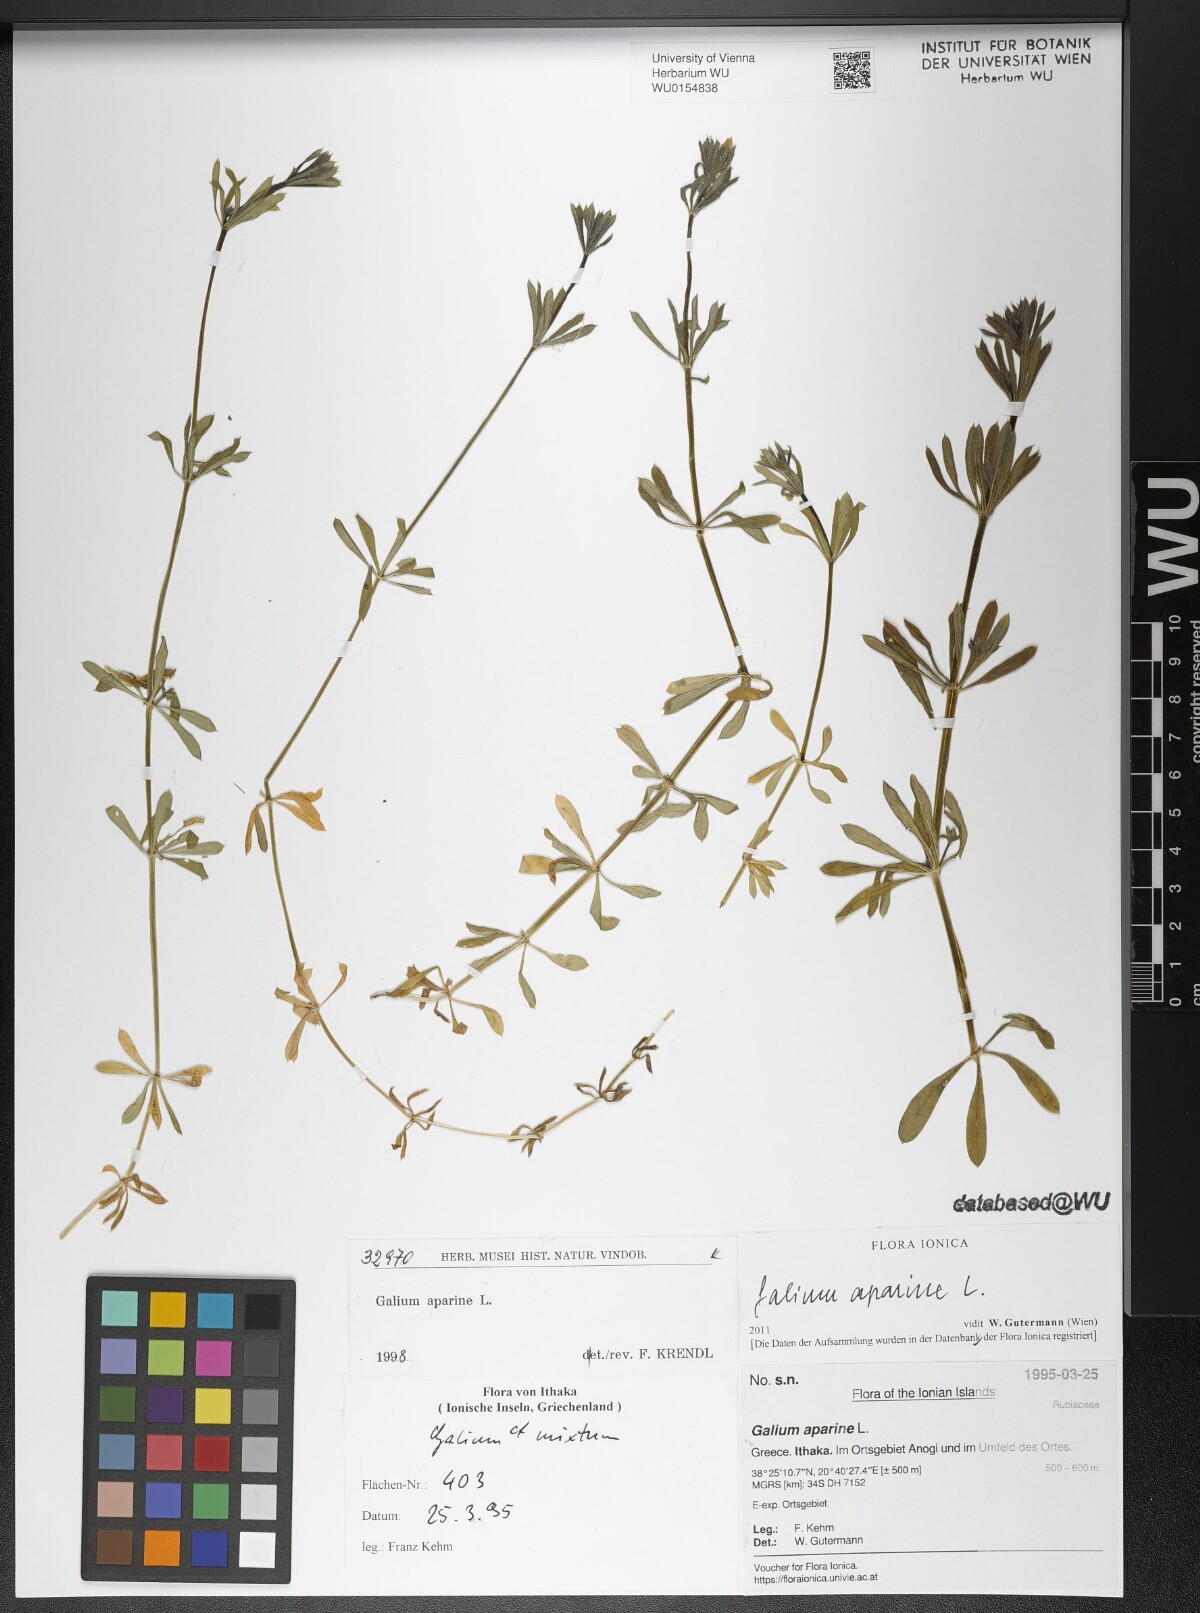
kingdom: Plantae
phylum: Tracheophyta
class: Magnoliopsida
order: Gentianales
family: Rubiaceae
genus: Galium
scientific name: Galium aparine
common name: Cleavers
